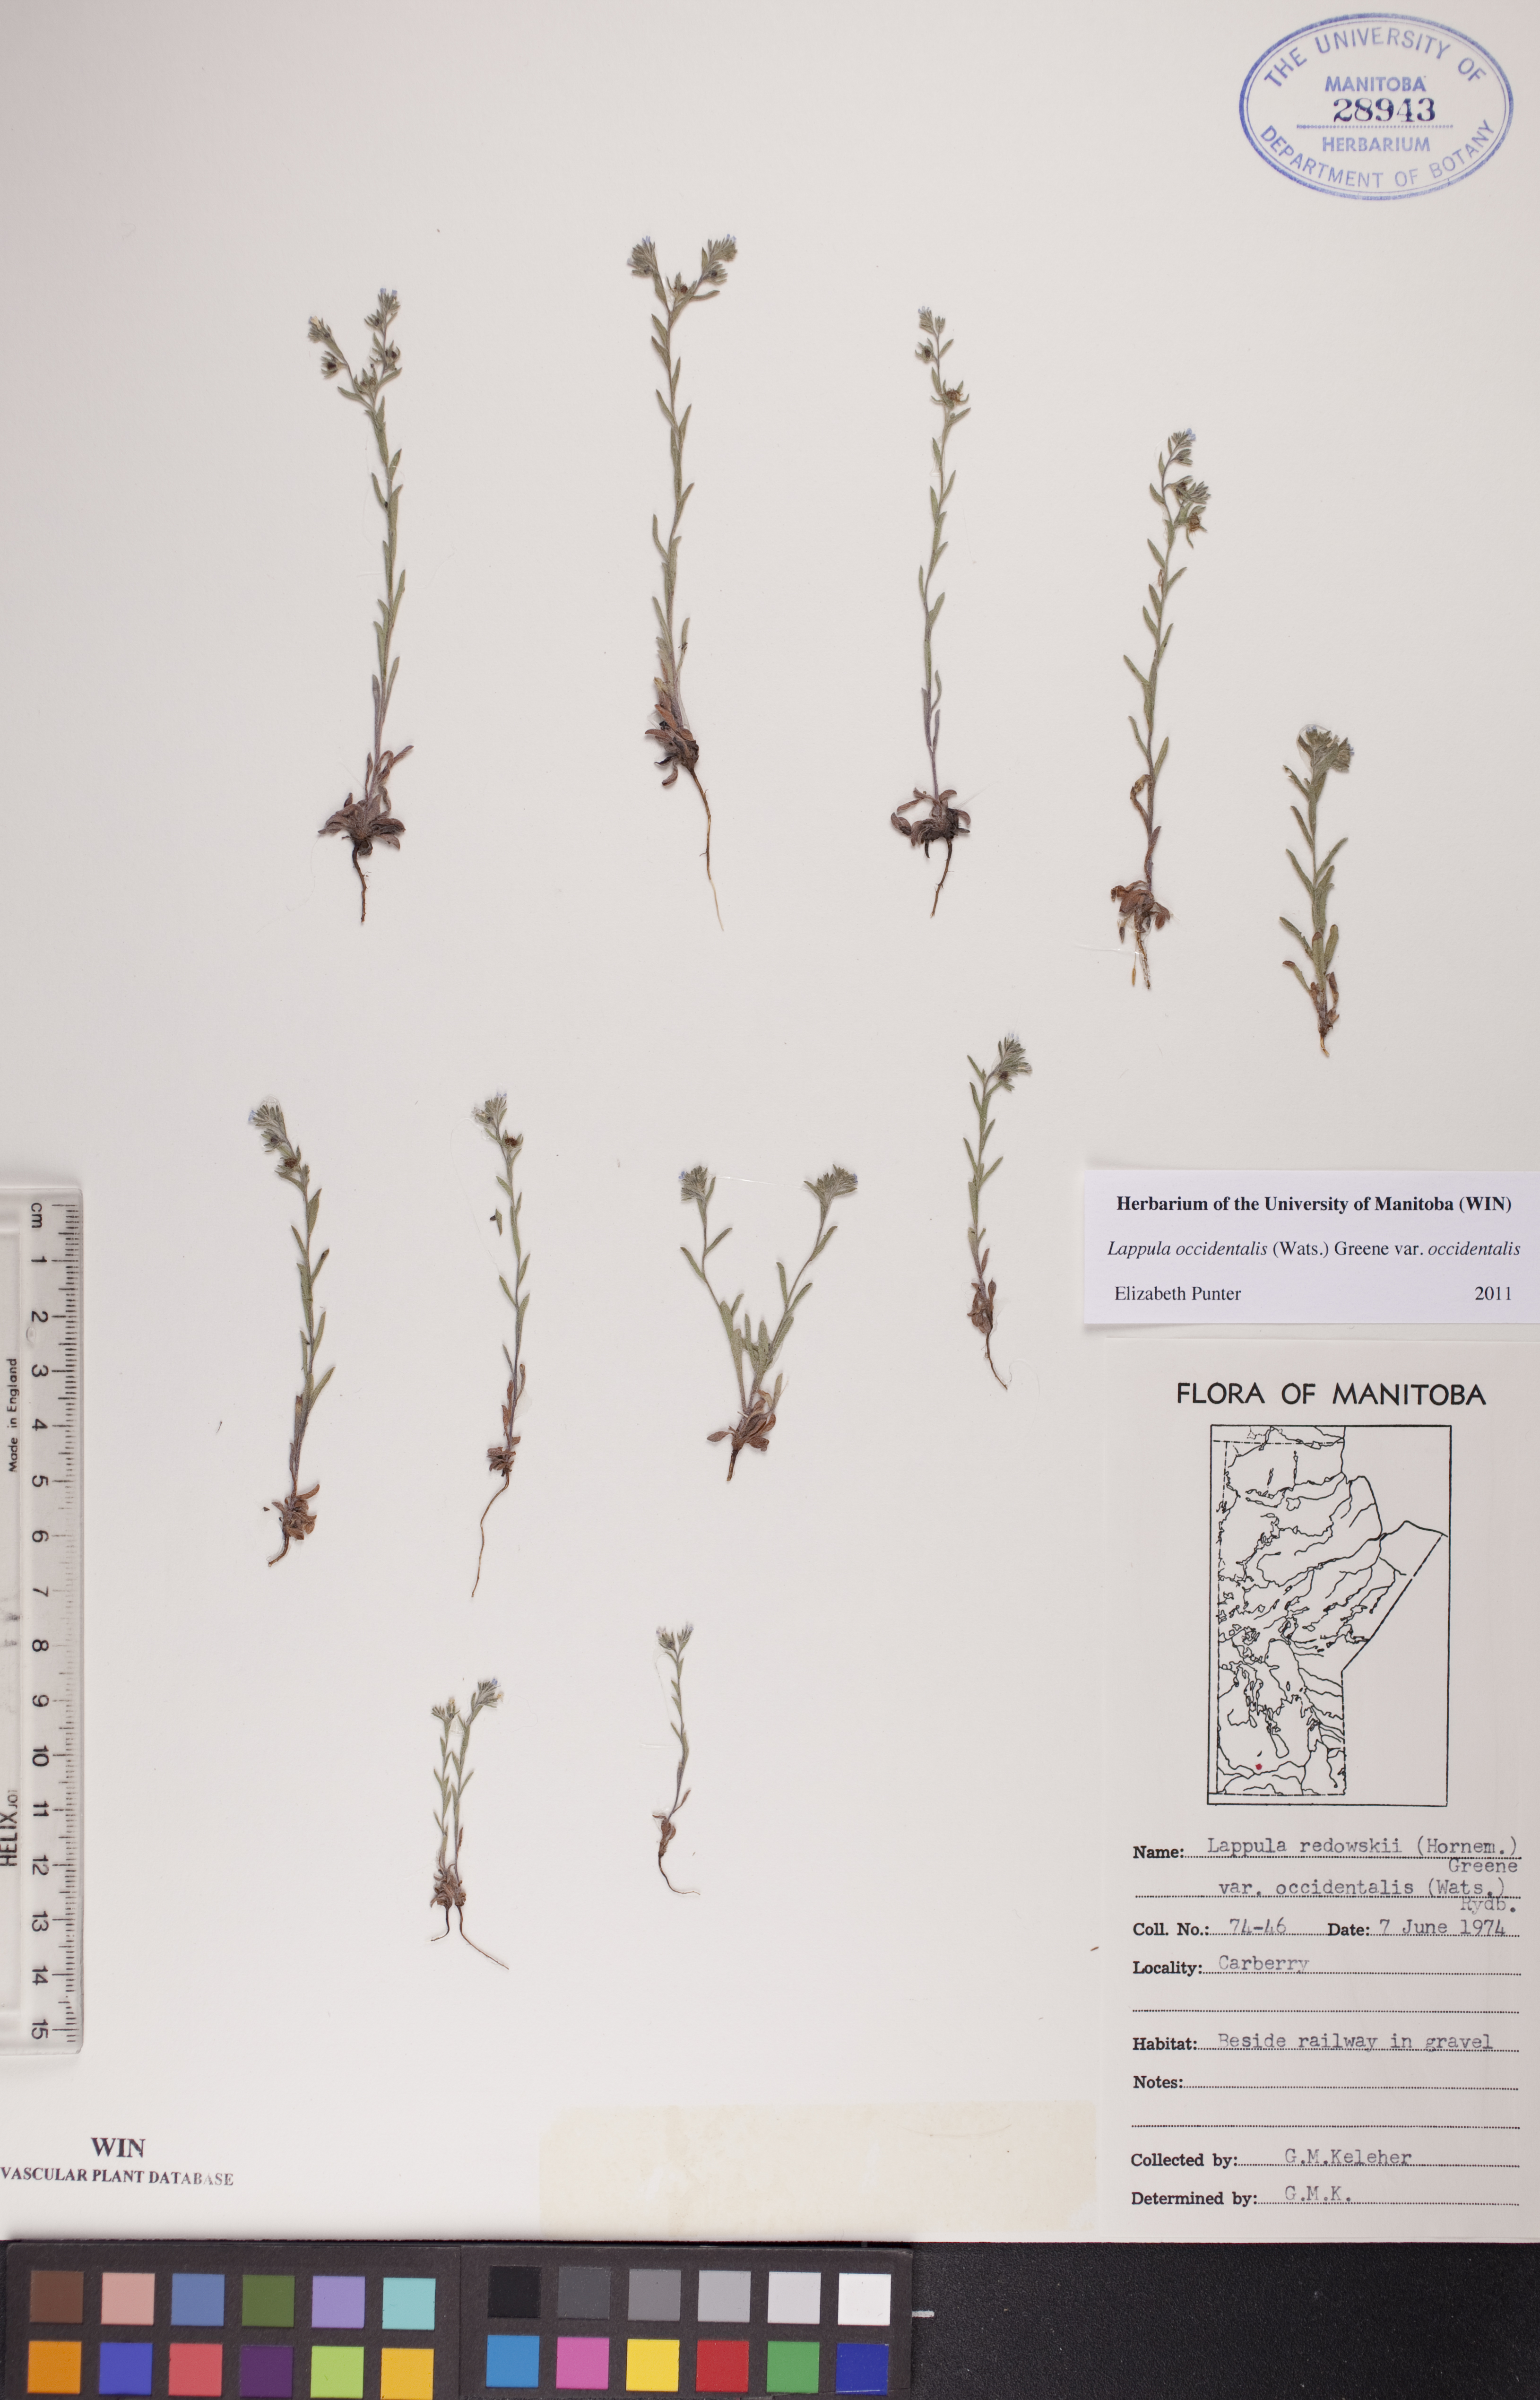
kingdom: Plantae
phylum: Tracheophyta
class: Magnoliopsida
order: Boraginales
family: Boraginaceae
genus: Lappula
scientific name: Lappula occidentalis
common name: Western stickseed
